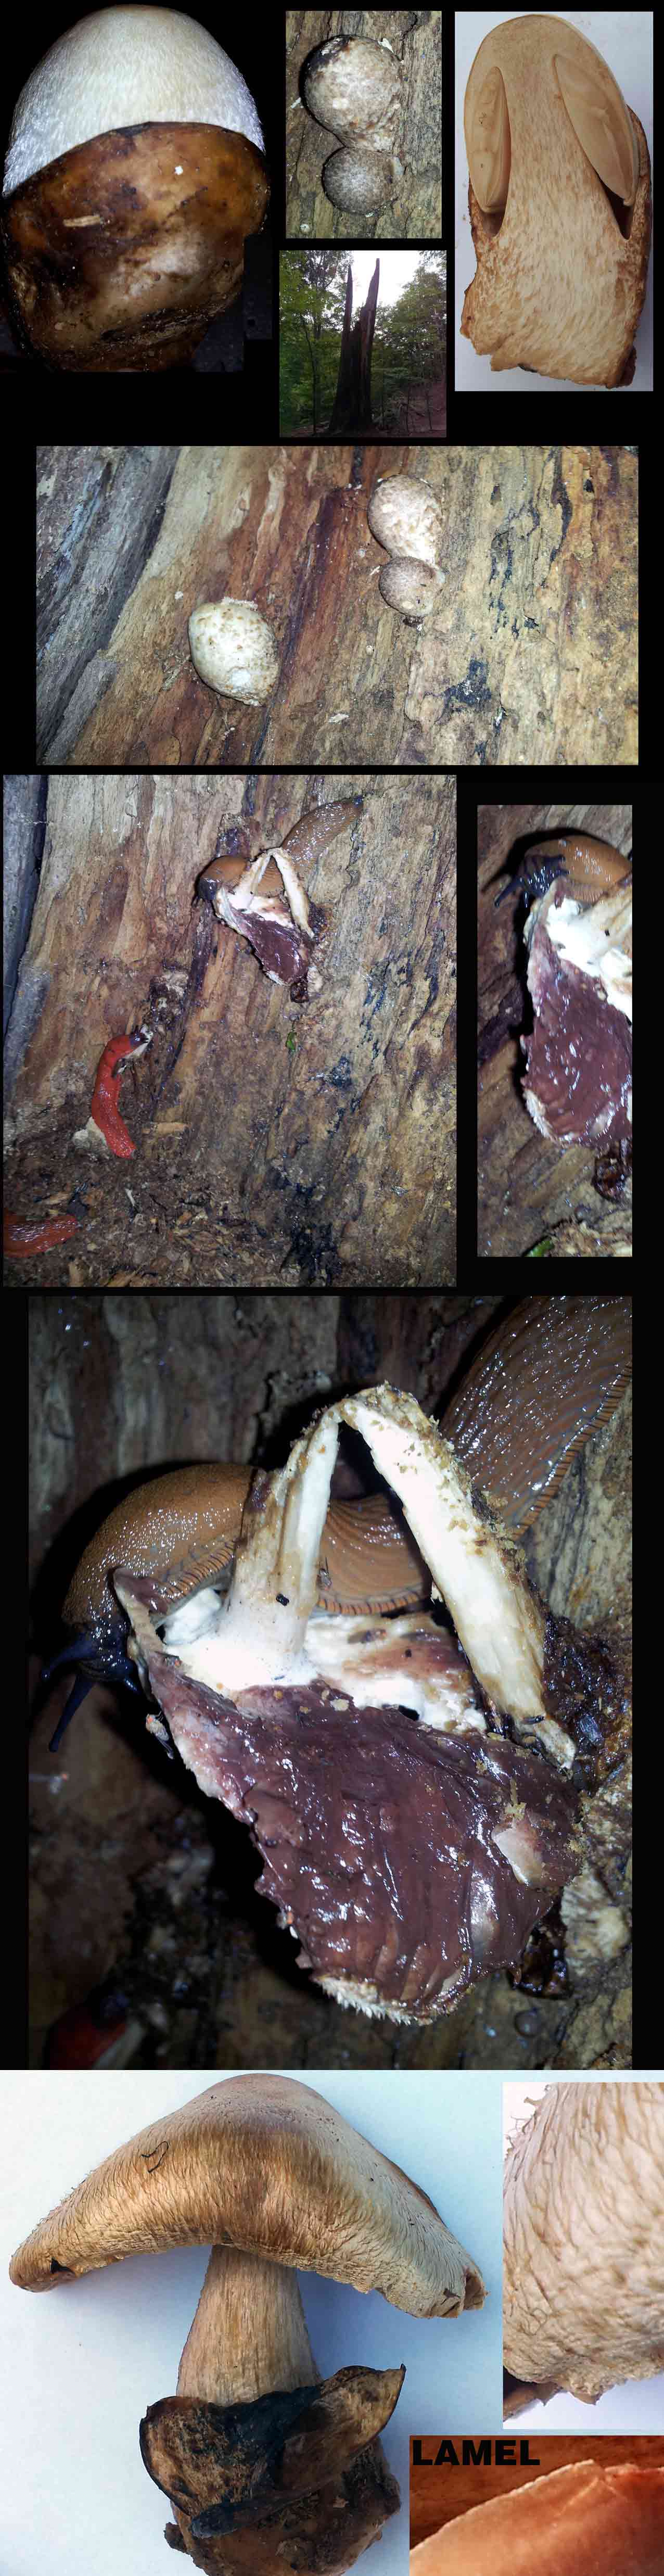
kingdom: Fungi
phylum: Basidiomycota
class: Agaricomycetes
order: Agaricales
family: Pluteaceae
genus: Volvariella
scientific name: Volvariella bombycina
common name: silkehåret posesvamp
